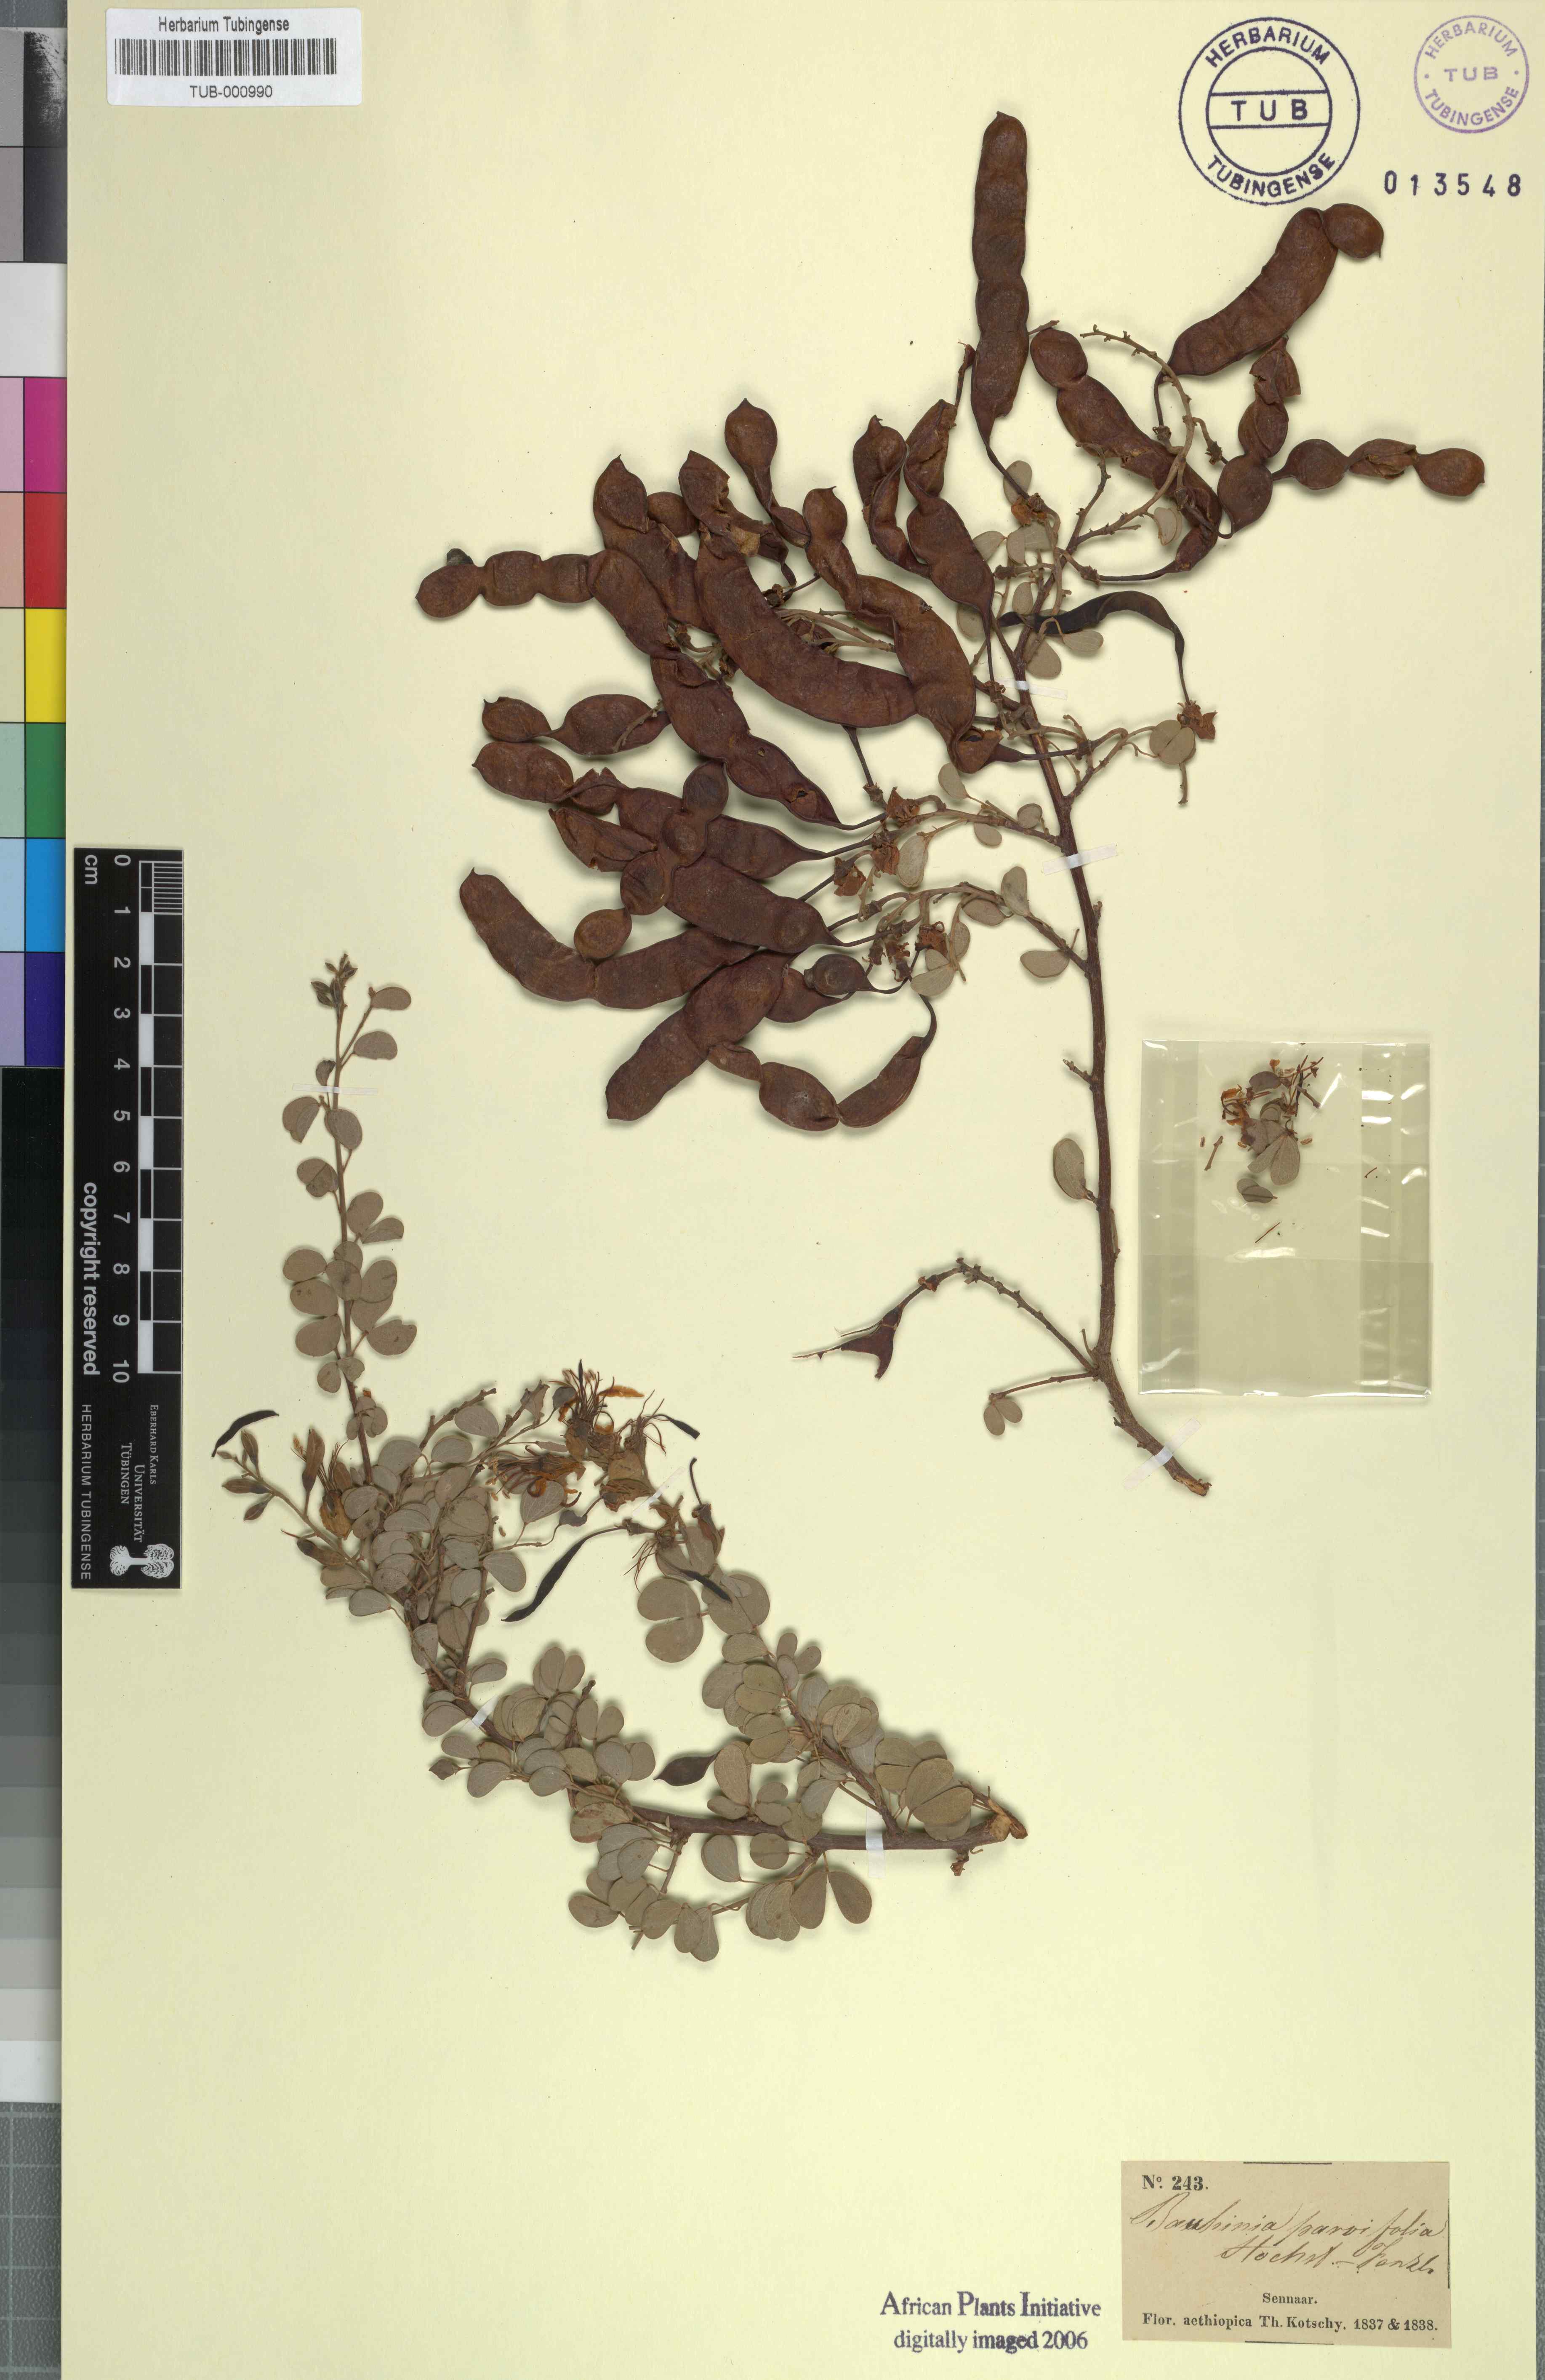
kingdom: Plantae
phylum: Tracheophyta
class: Magnoliopsida
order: Fabales
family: Fabaceae
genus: Bauhinia
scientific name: Bauhinia rufescens
